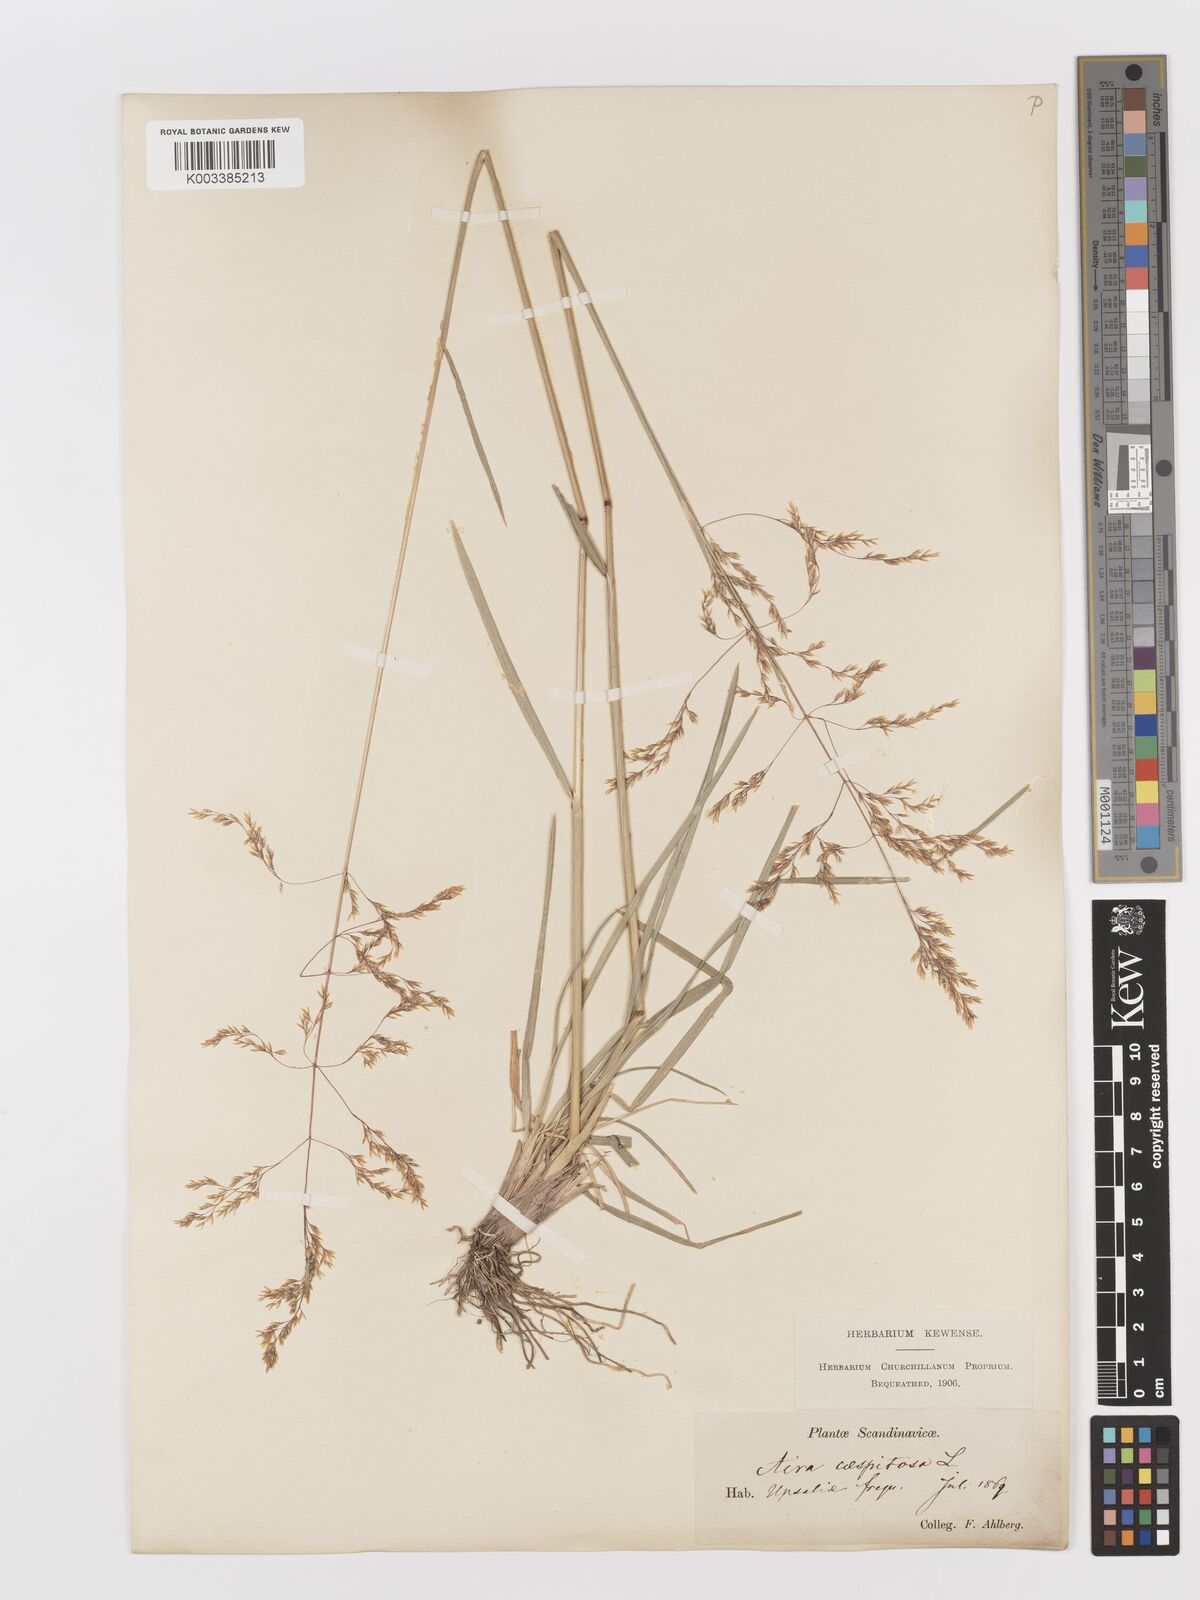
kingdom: Plantae
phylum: Tracheophyta
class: Liliopsida
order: Poales
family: Poaceae
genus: Deschampsia
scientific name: Deschampsia cespitosa
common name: Tufted hair-grass
